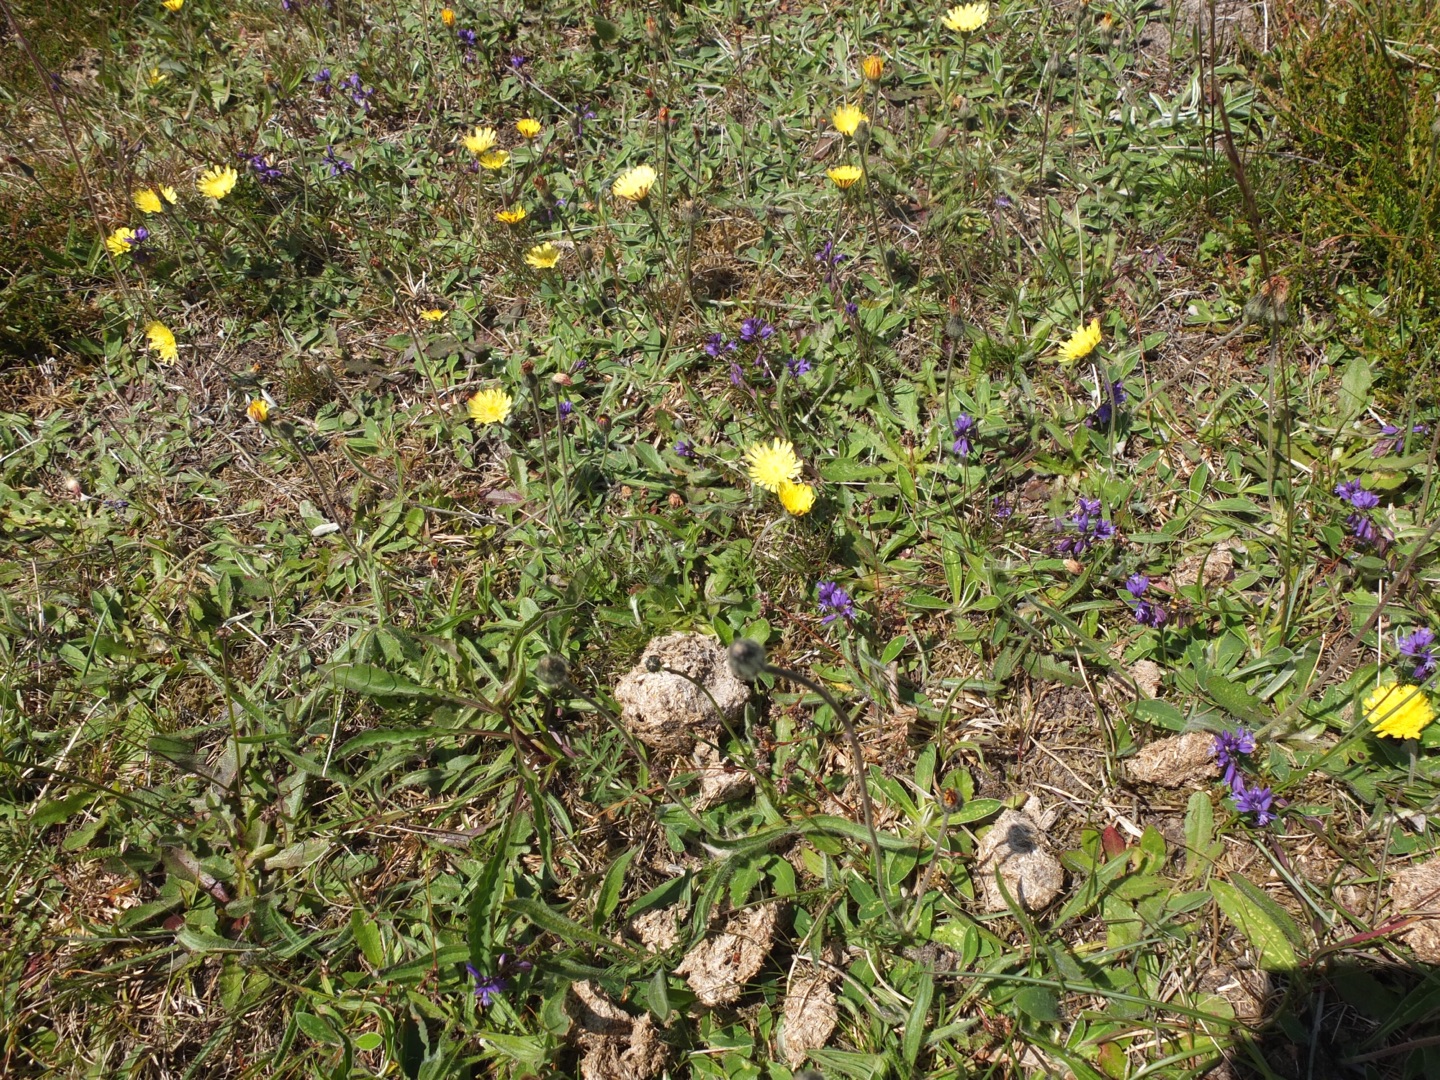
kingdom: Plantae
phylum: Tracheophyta
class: Magnoliopsida
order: Fabales
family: Polygalaceae
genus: Polygala
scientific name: Polygala vulgaris
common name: Almindelig mælkeurt
